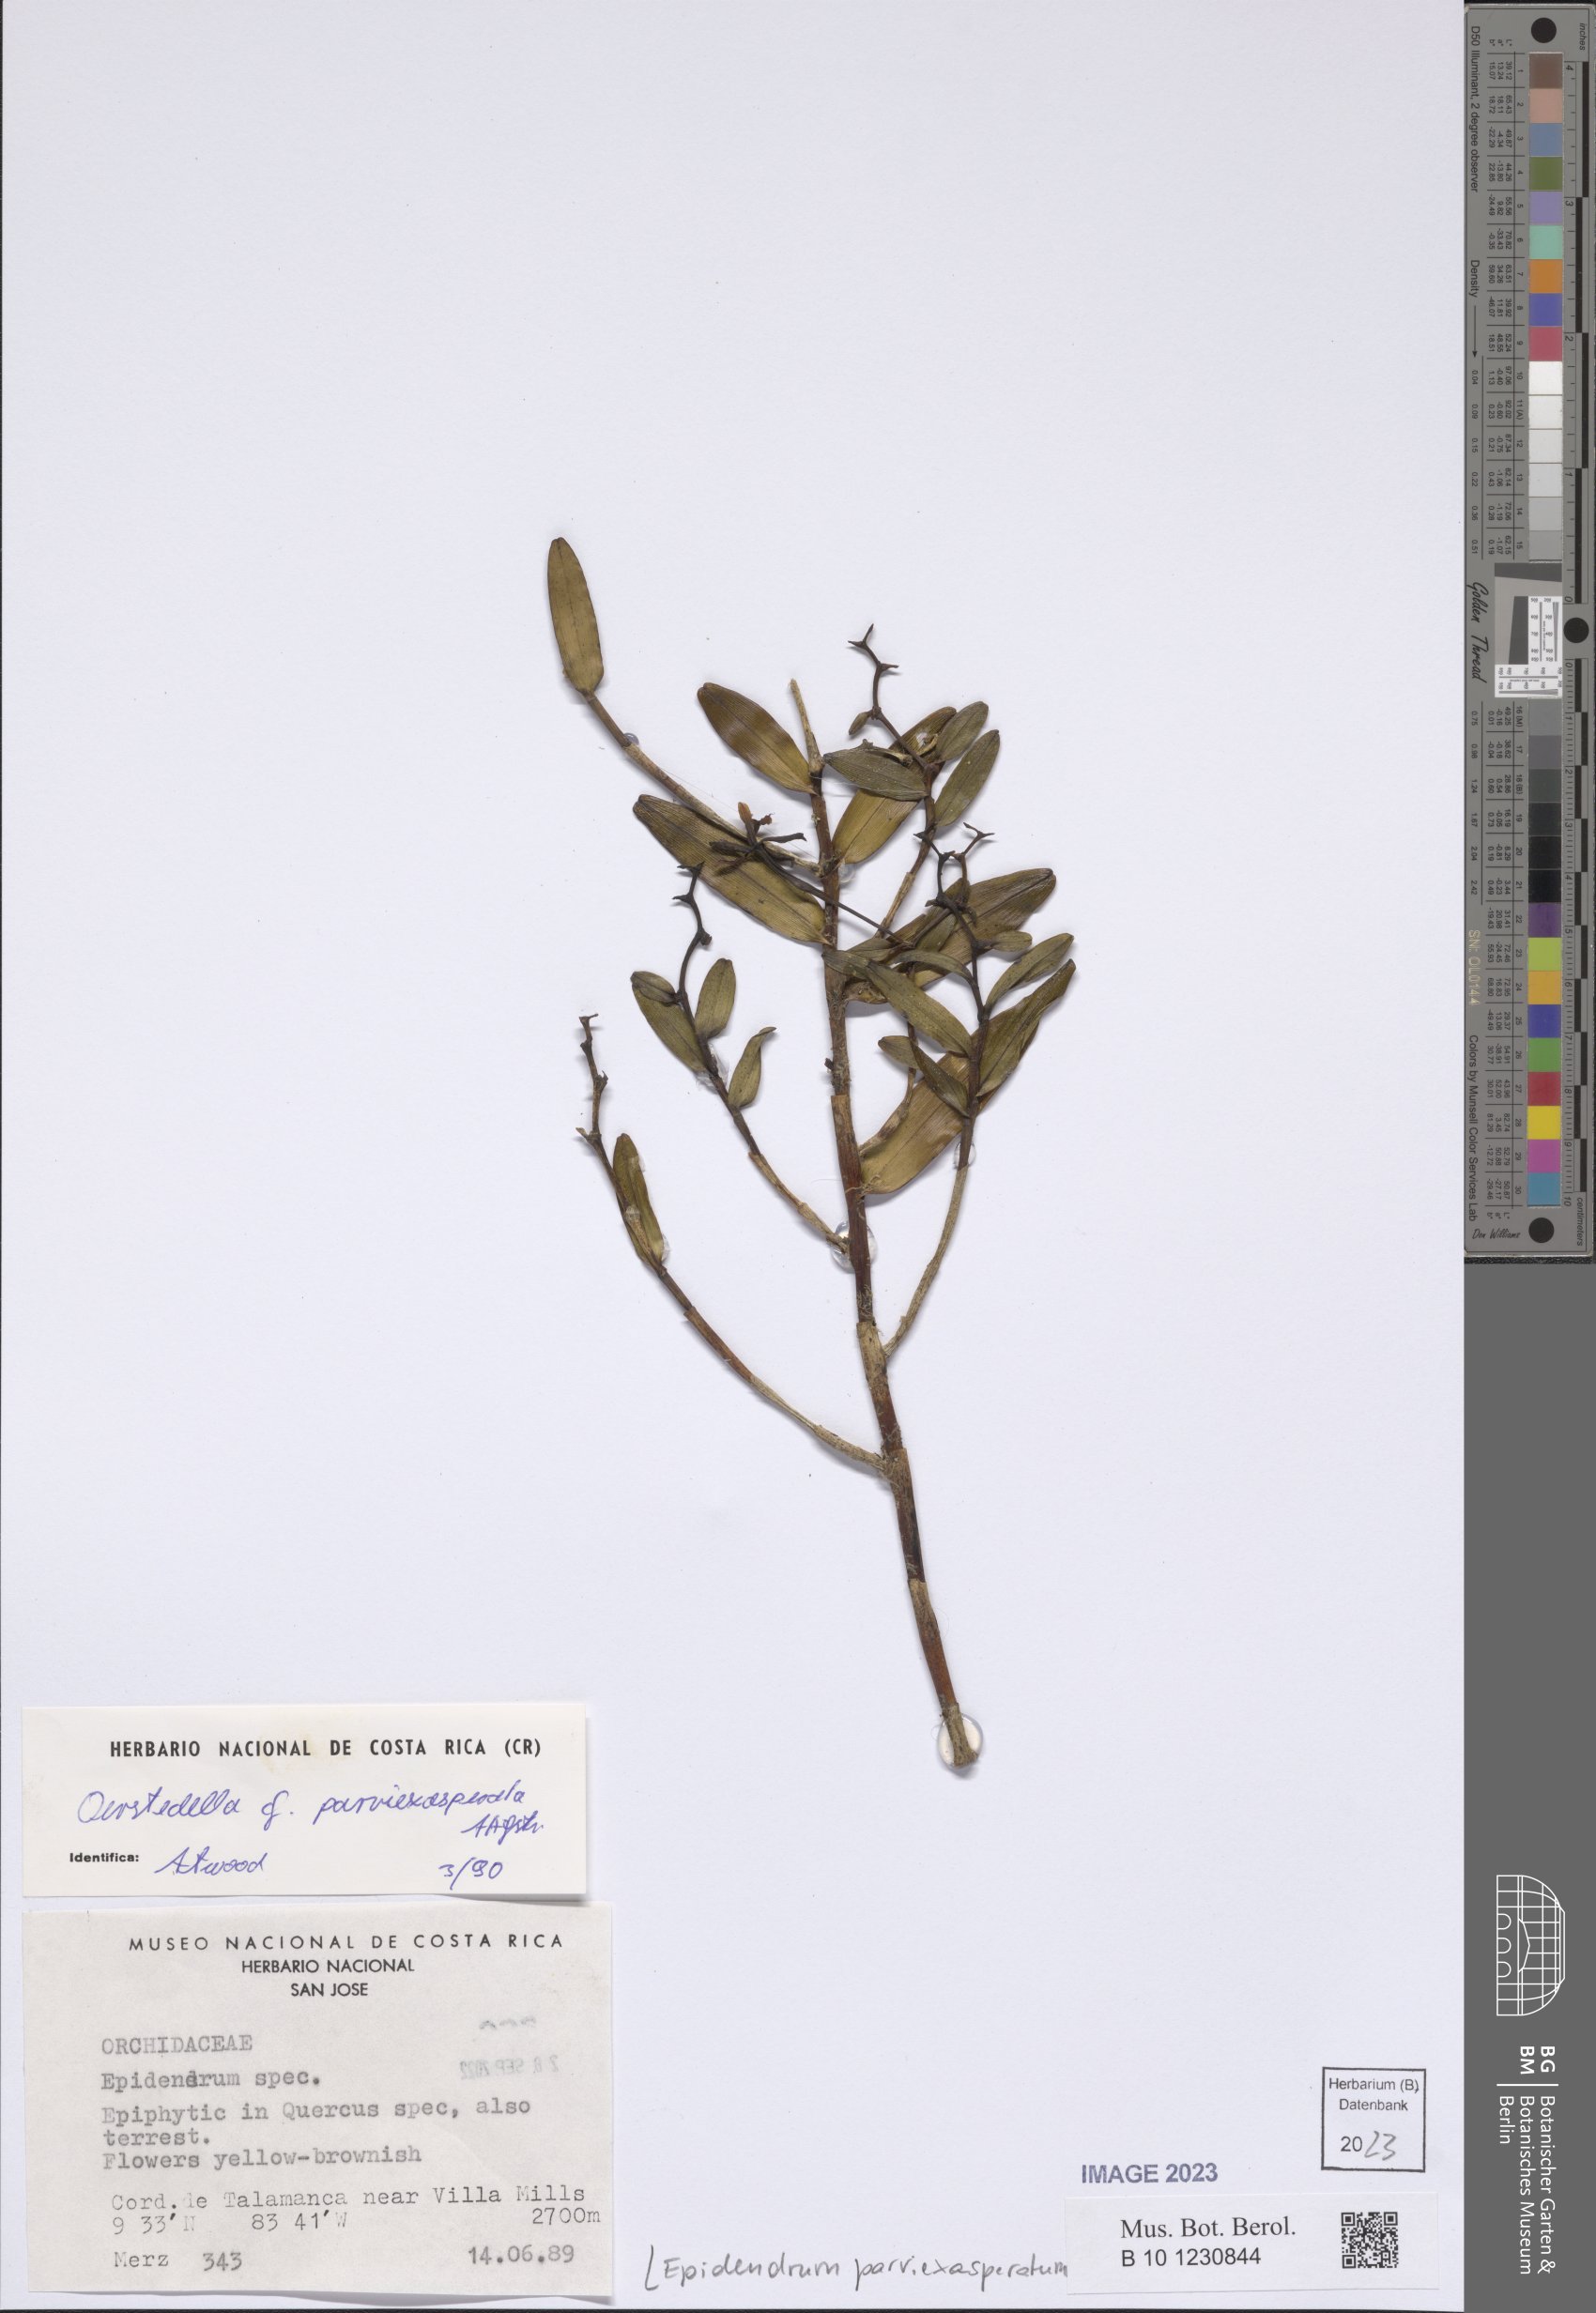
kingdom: Plantae
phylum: Tracheophyta
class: Liliopsida
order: Asparagales
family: Orchidaceae
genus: Epidendrum
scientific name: Epidendrum parviexasperatum
